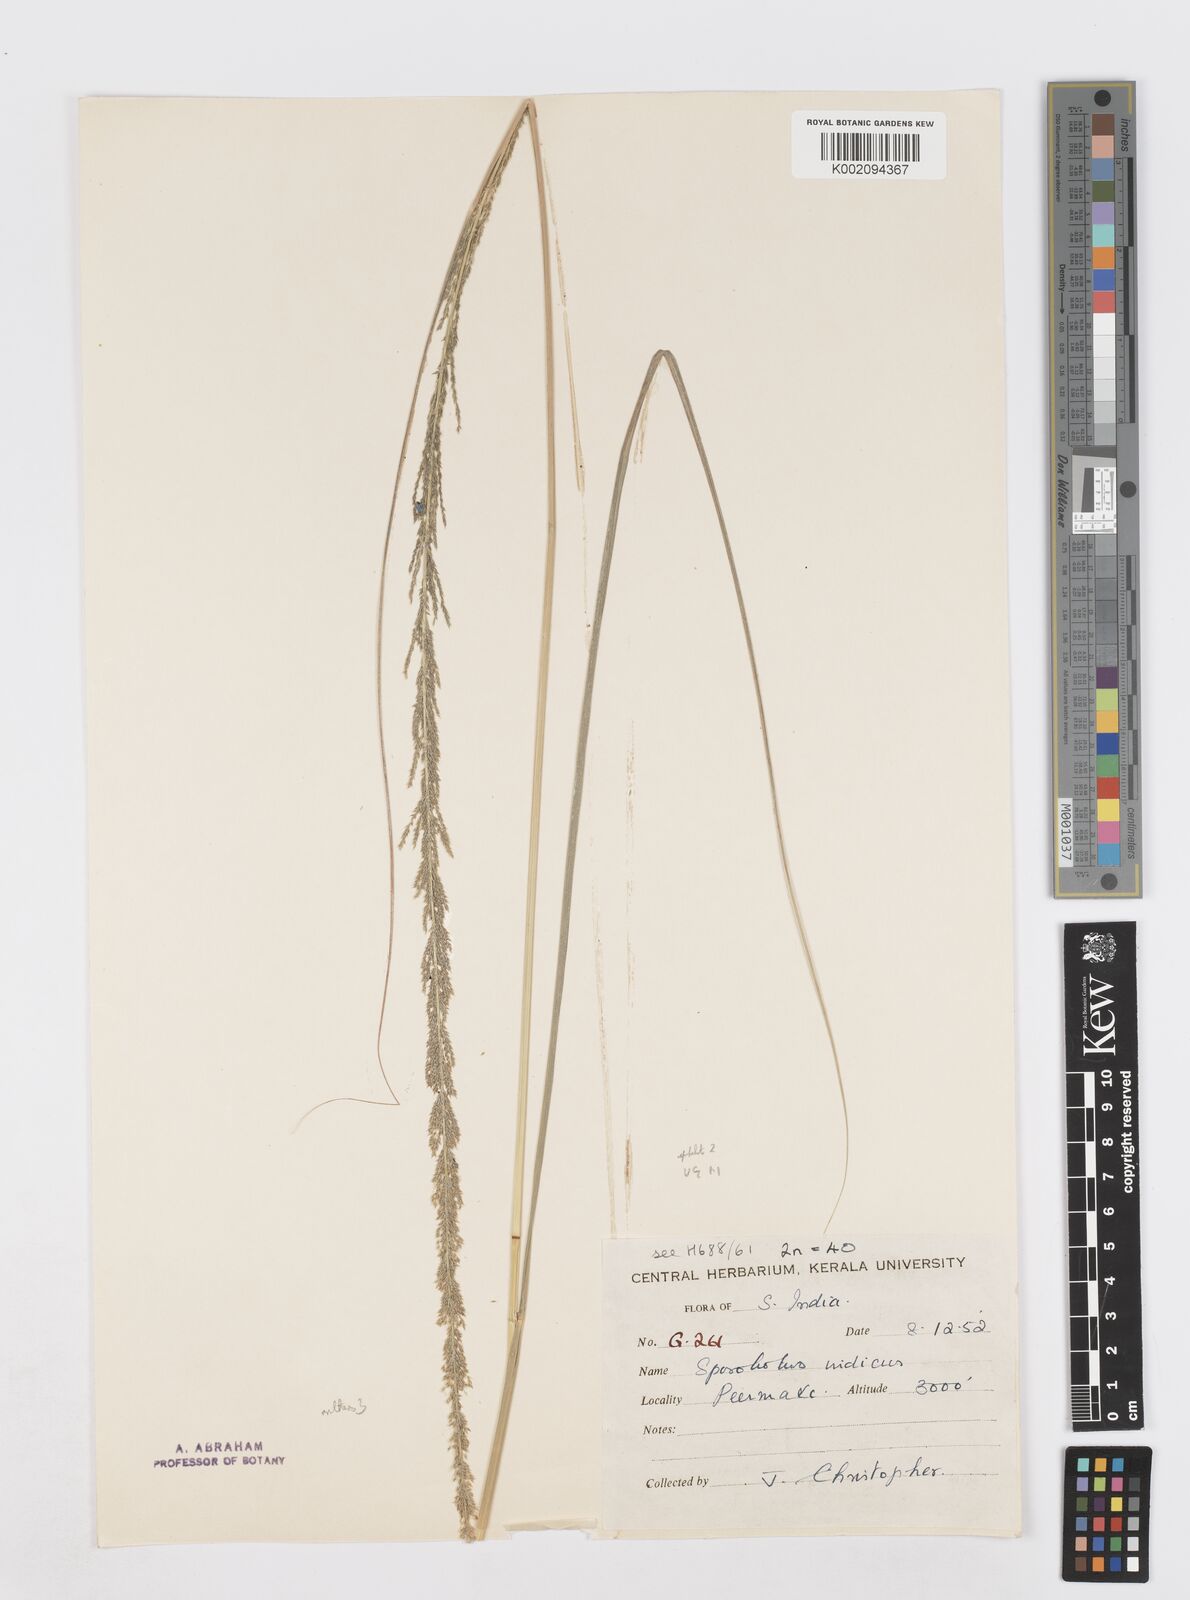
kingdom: Plantae
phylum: Tracheophyta
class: Liliopsida
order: Poales
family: Poaceae
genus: Sporobolus
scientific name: Sporobolus fertilis
